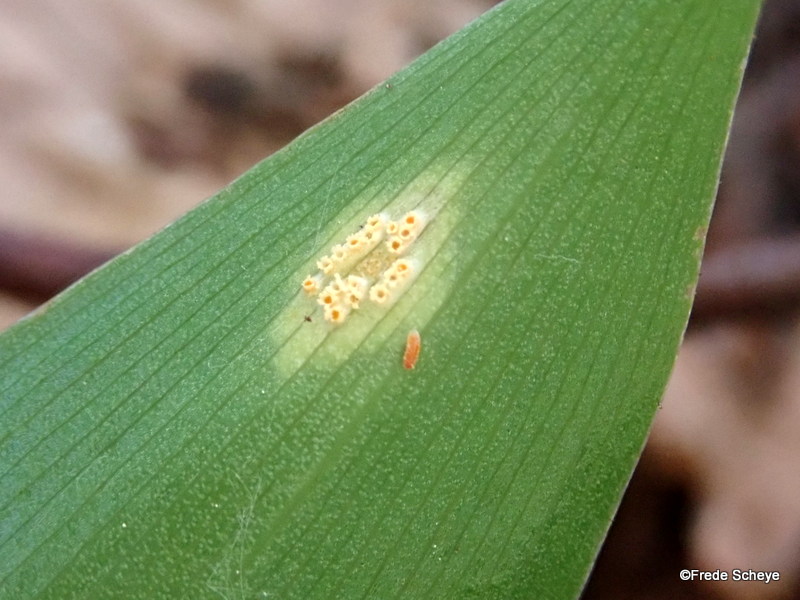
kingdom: Fungi
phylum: Basidiomycota
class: Pucciniomycetes
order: Pucciniales
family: Pucciniaceae
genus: Puccinia
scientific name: Puccinia sessilis
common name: Arum rust
